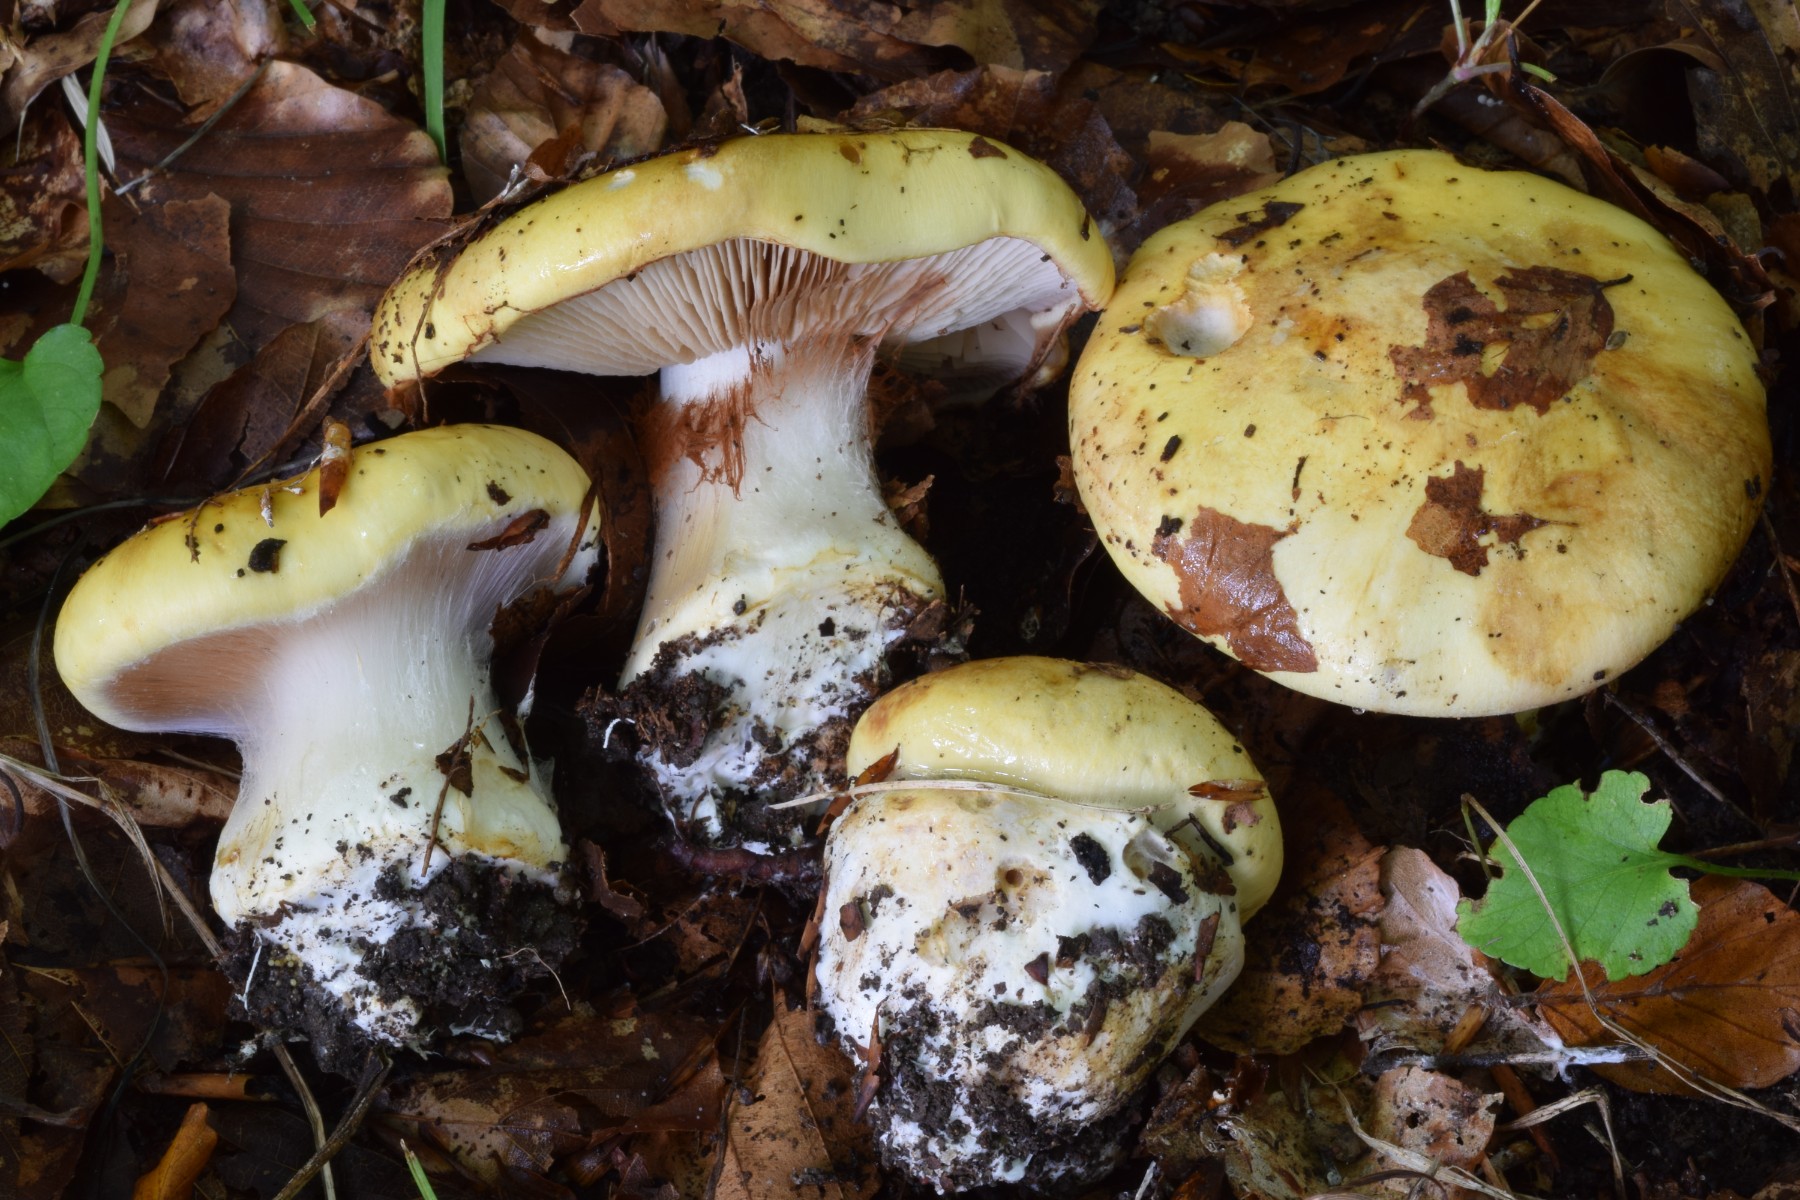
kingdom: Fungi
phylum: Basidiomycota
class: Agaricomycetes
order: Agaricales
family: Cortinariaceae
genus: Phlegmacium
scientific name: Phlegmacium caesiocortinatum
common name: rundsporet slørhat
